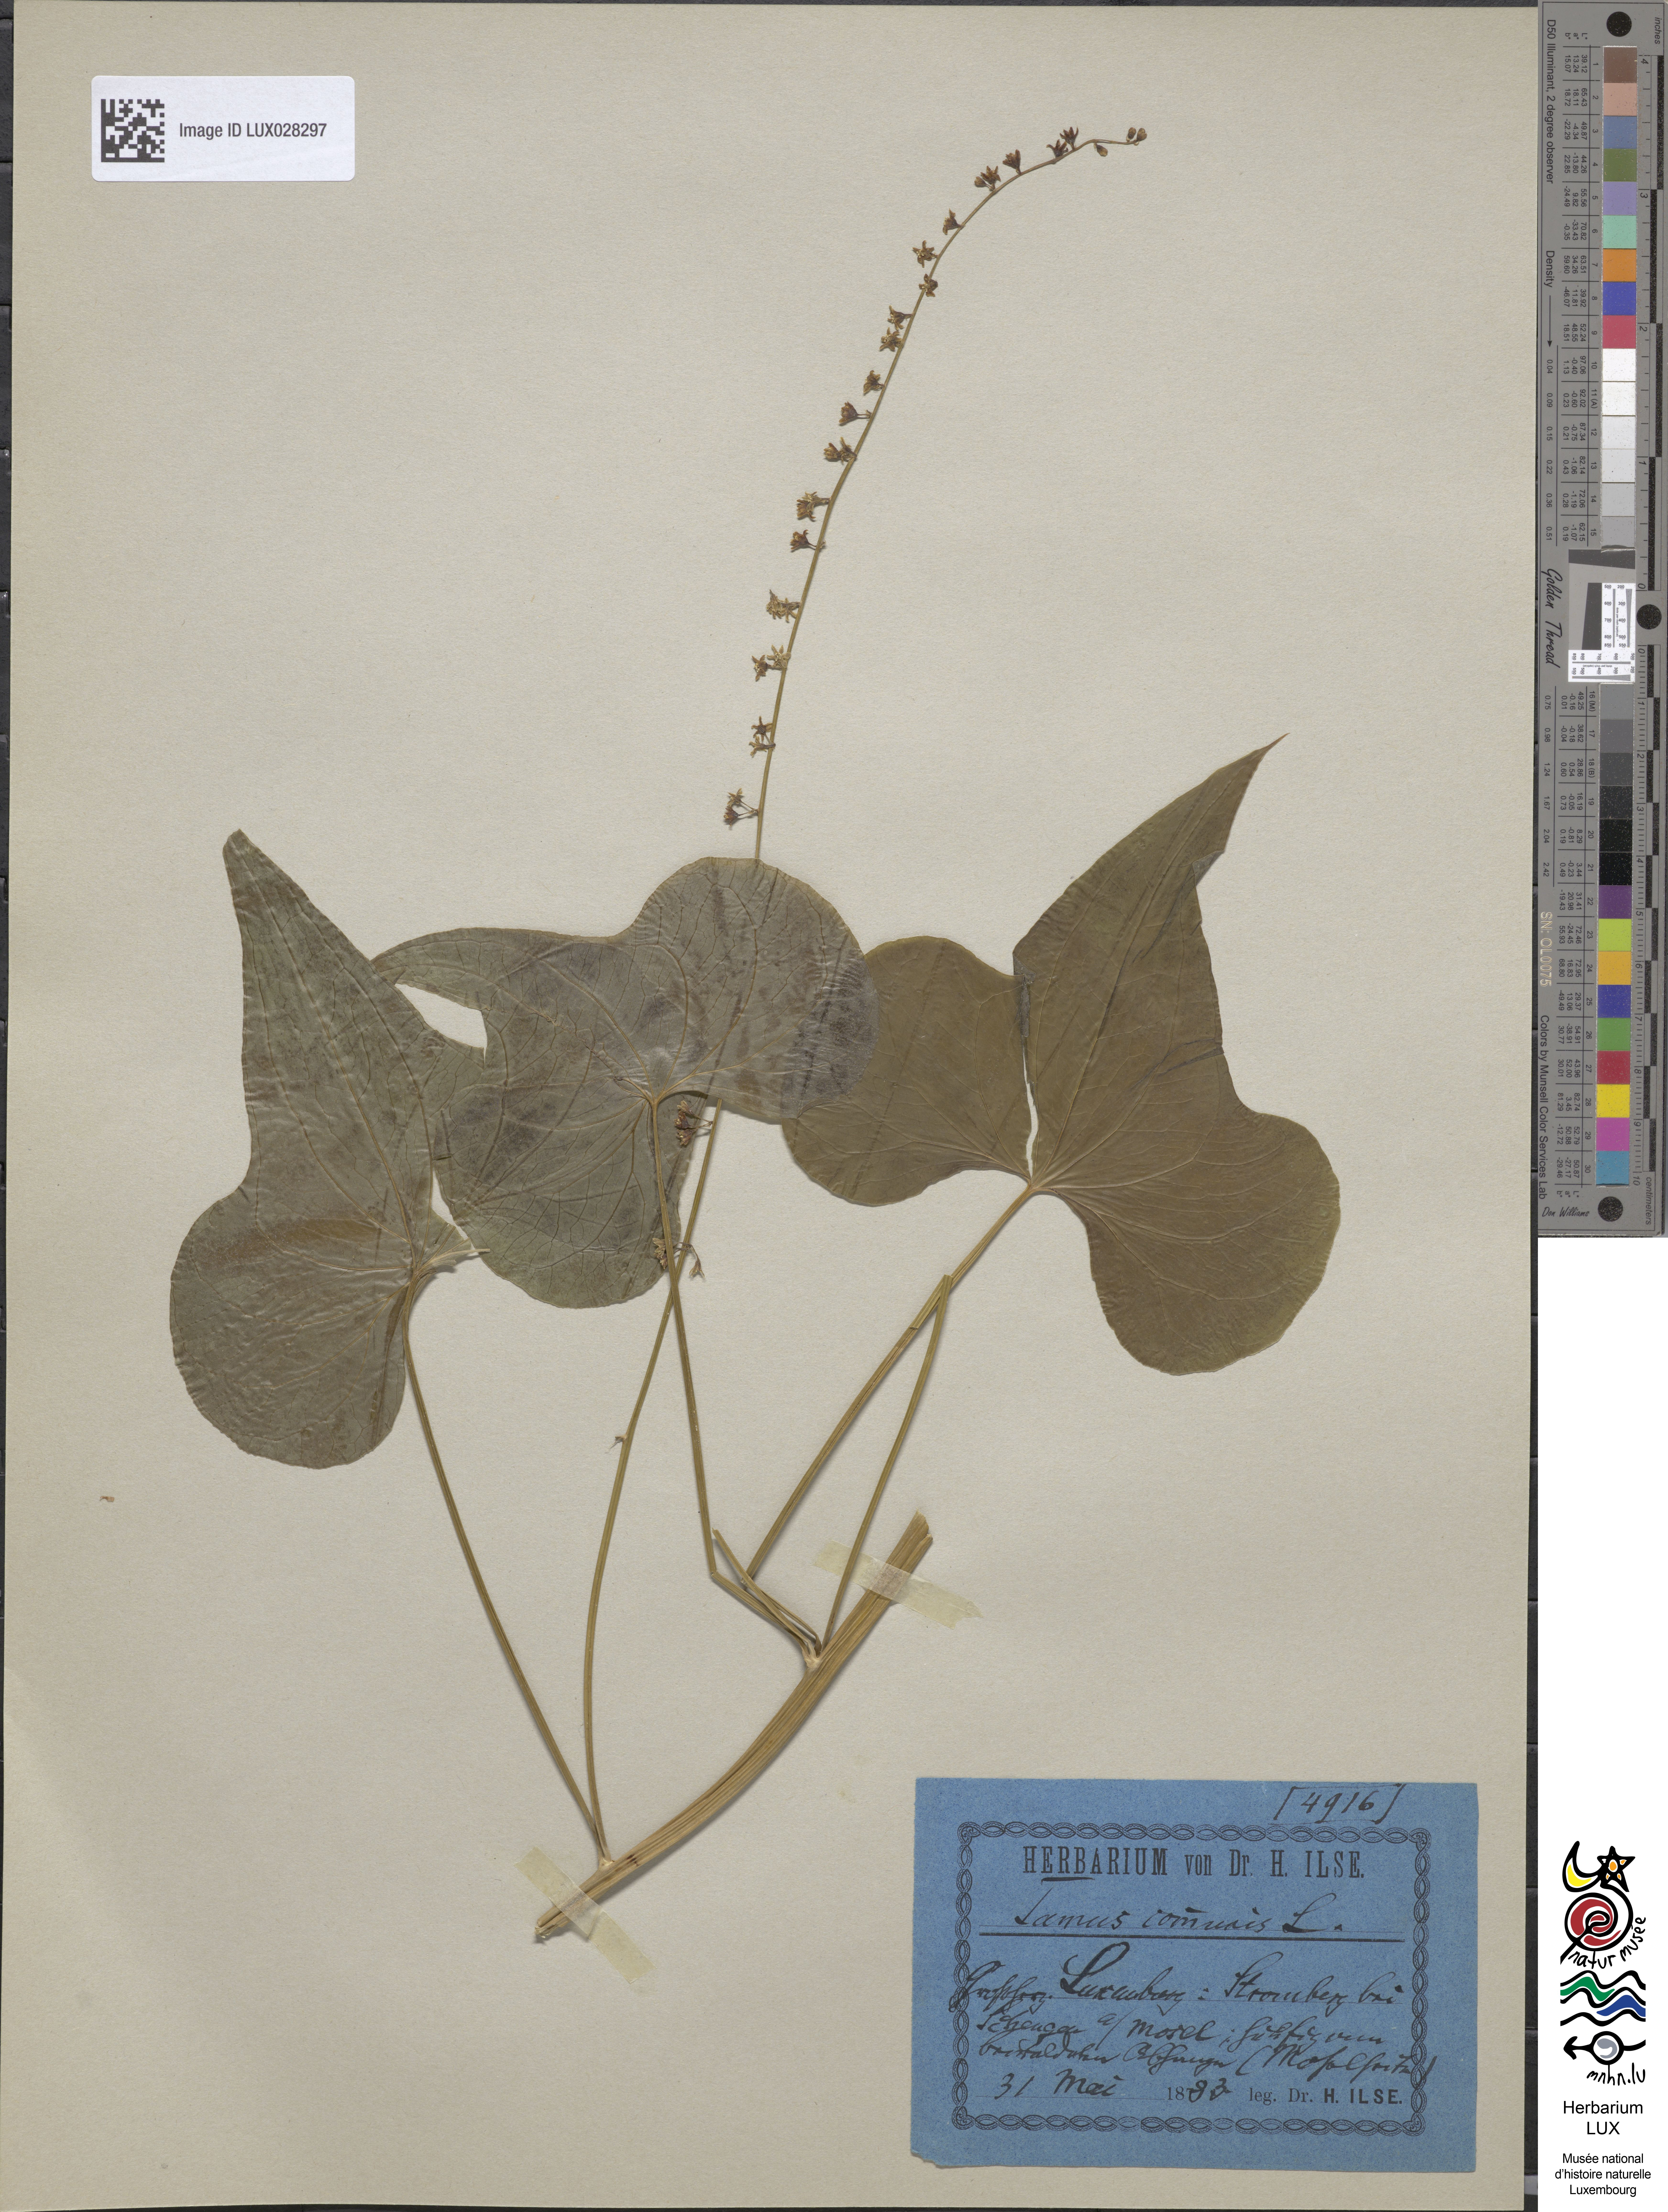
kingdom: Plantae
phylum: Tracheophyta
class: Liliopsida
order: Dioscoreales
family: Dioscoreaceae
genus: Dioscorea
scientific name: Dioscorea communis
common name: Black-bindweed
